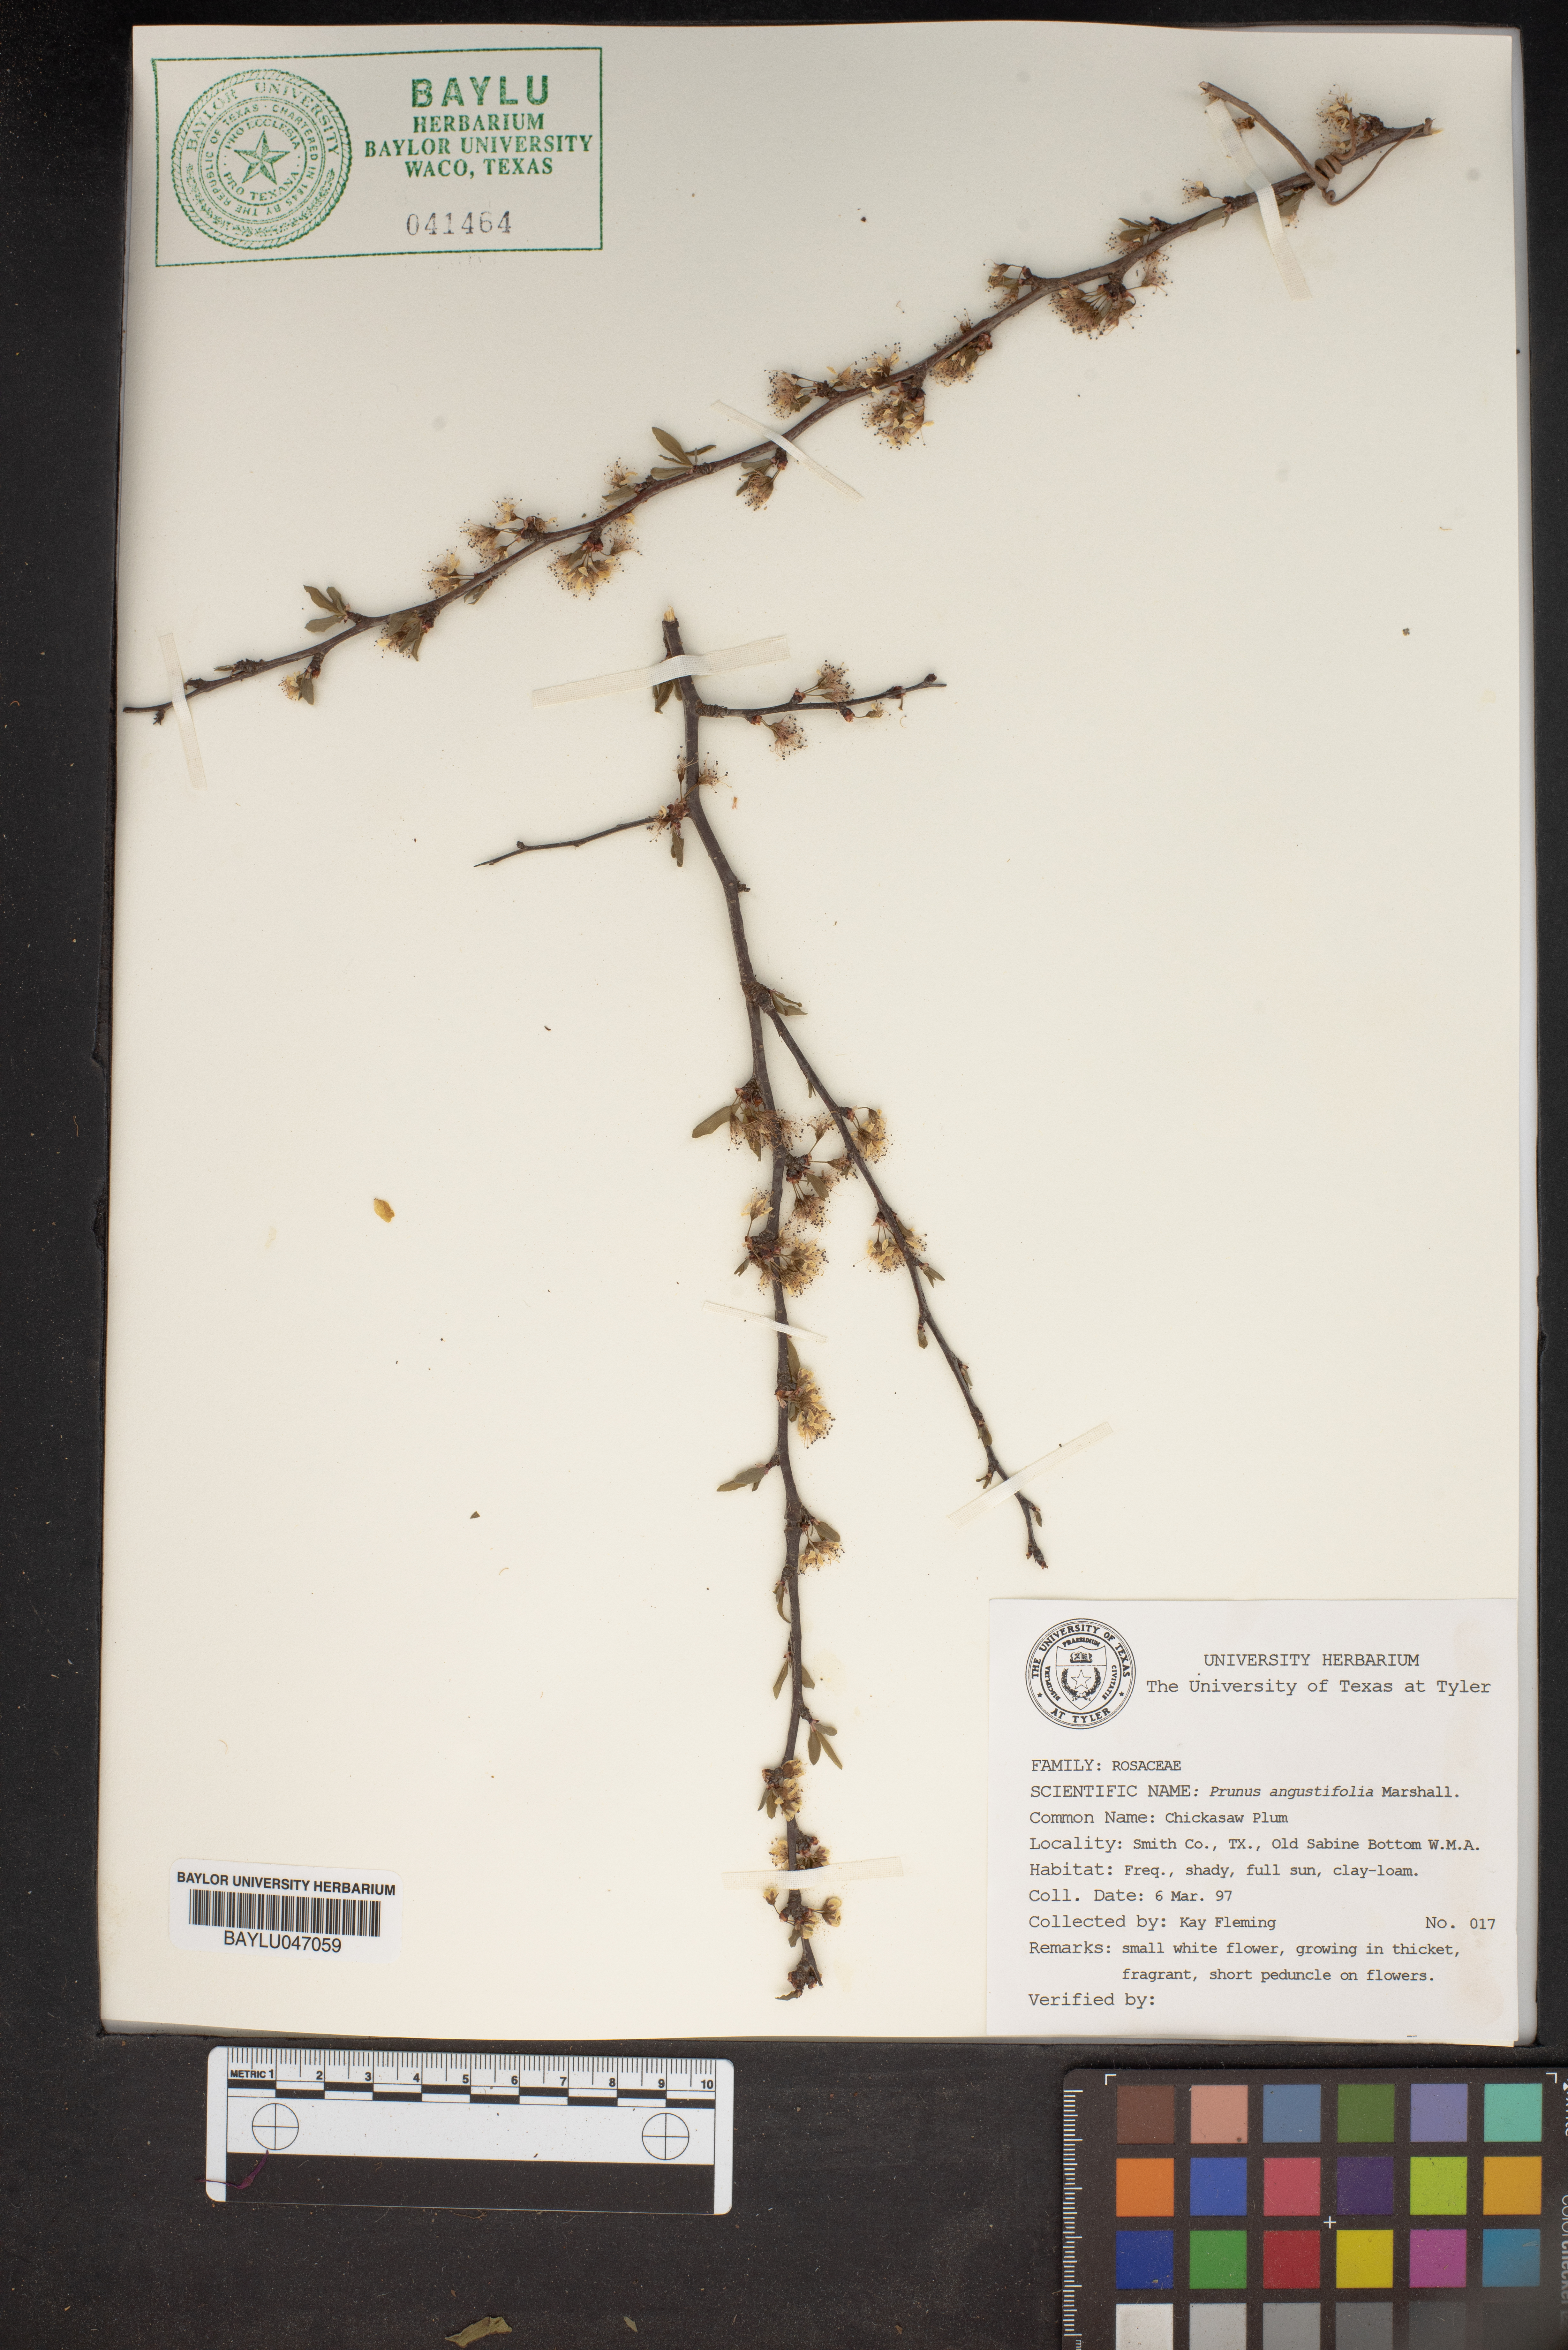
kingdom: Plantae
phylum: Tracheophyta
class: Magnoliopsida
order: Rosales
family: Rosaceae
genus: Prunus
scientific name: Prunus angustifolia
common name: Cherokee plum
